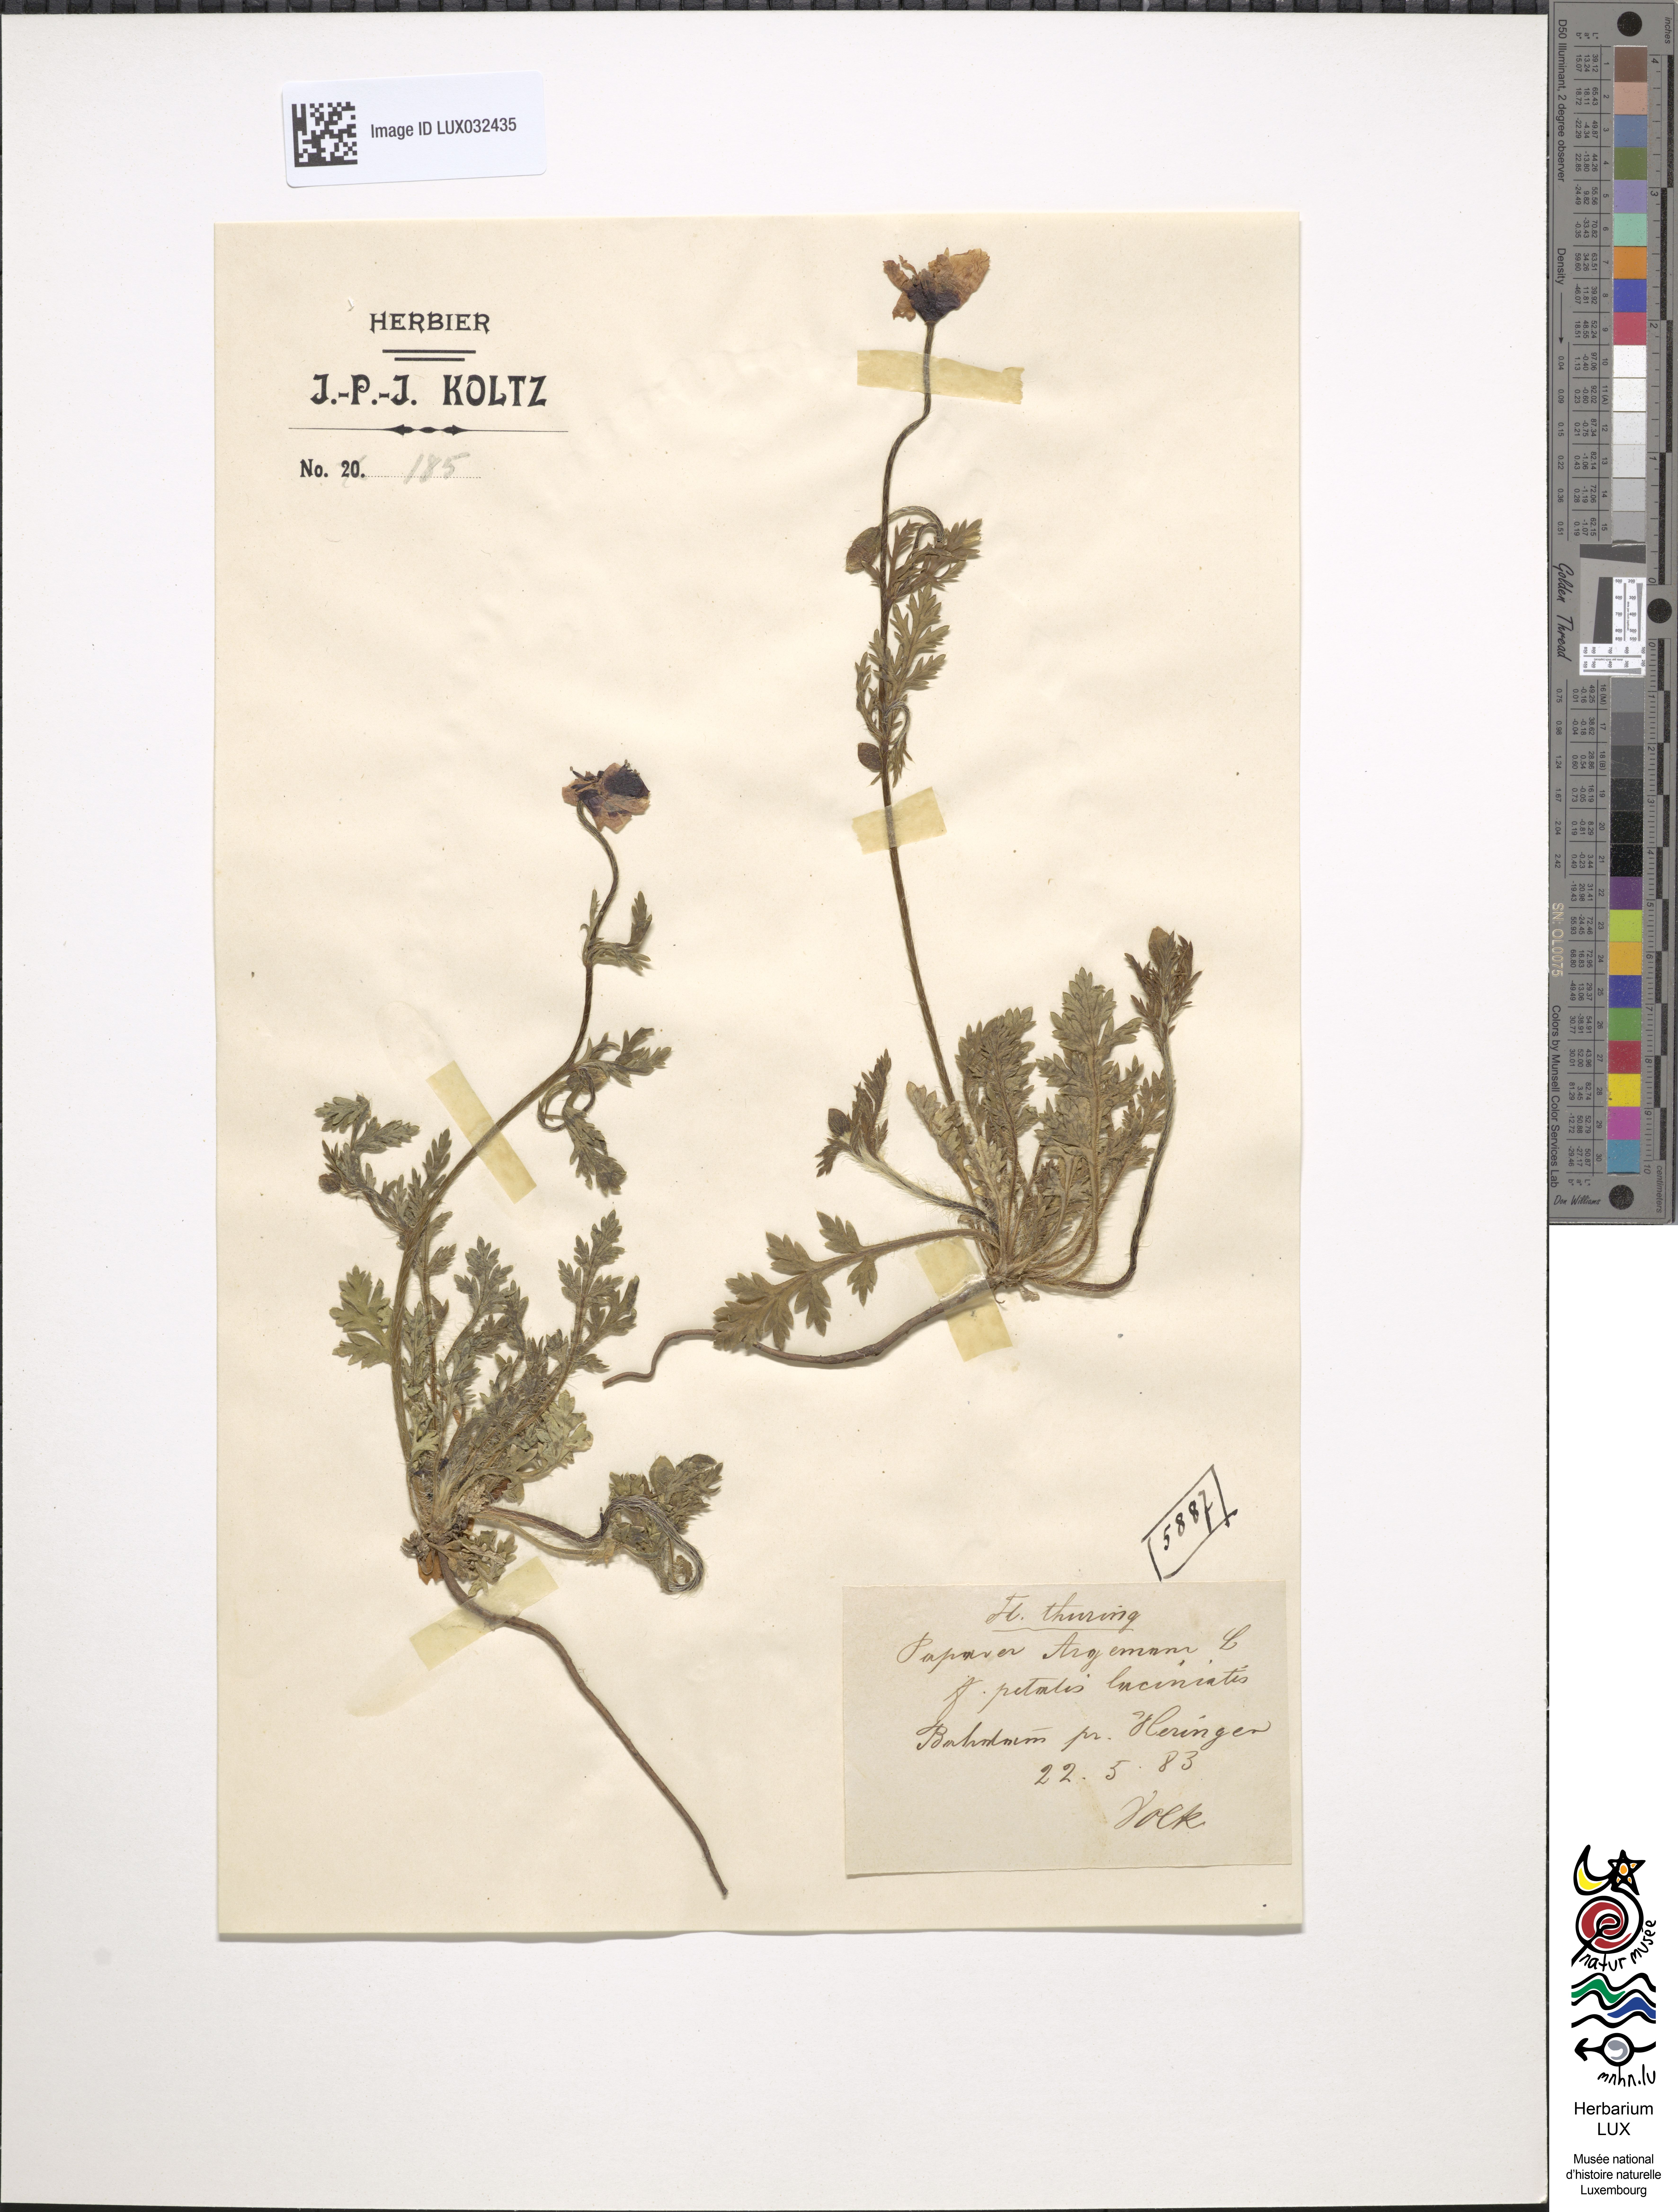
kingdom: Plantae
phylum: Tracheophyta
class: Magnoliopsida
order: Ranunculales
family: Papaveraceae
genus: Roemeria
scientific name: Roemeria argemone
